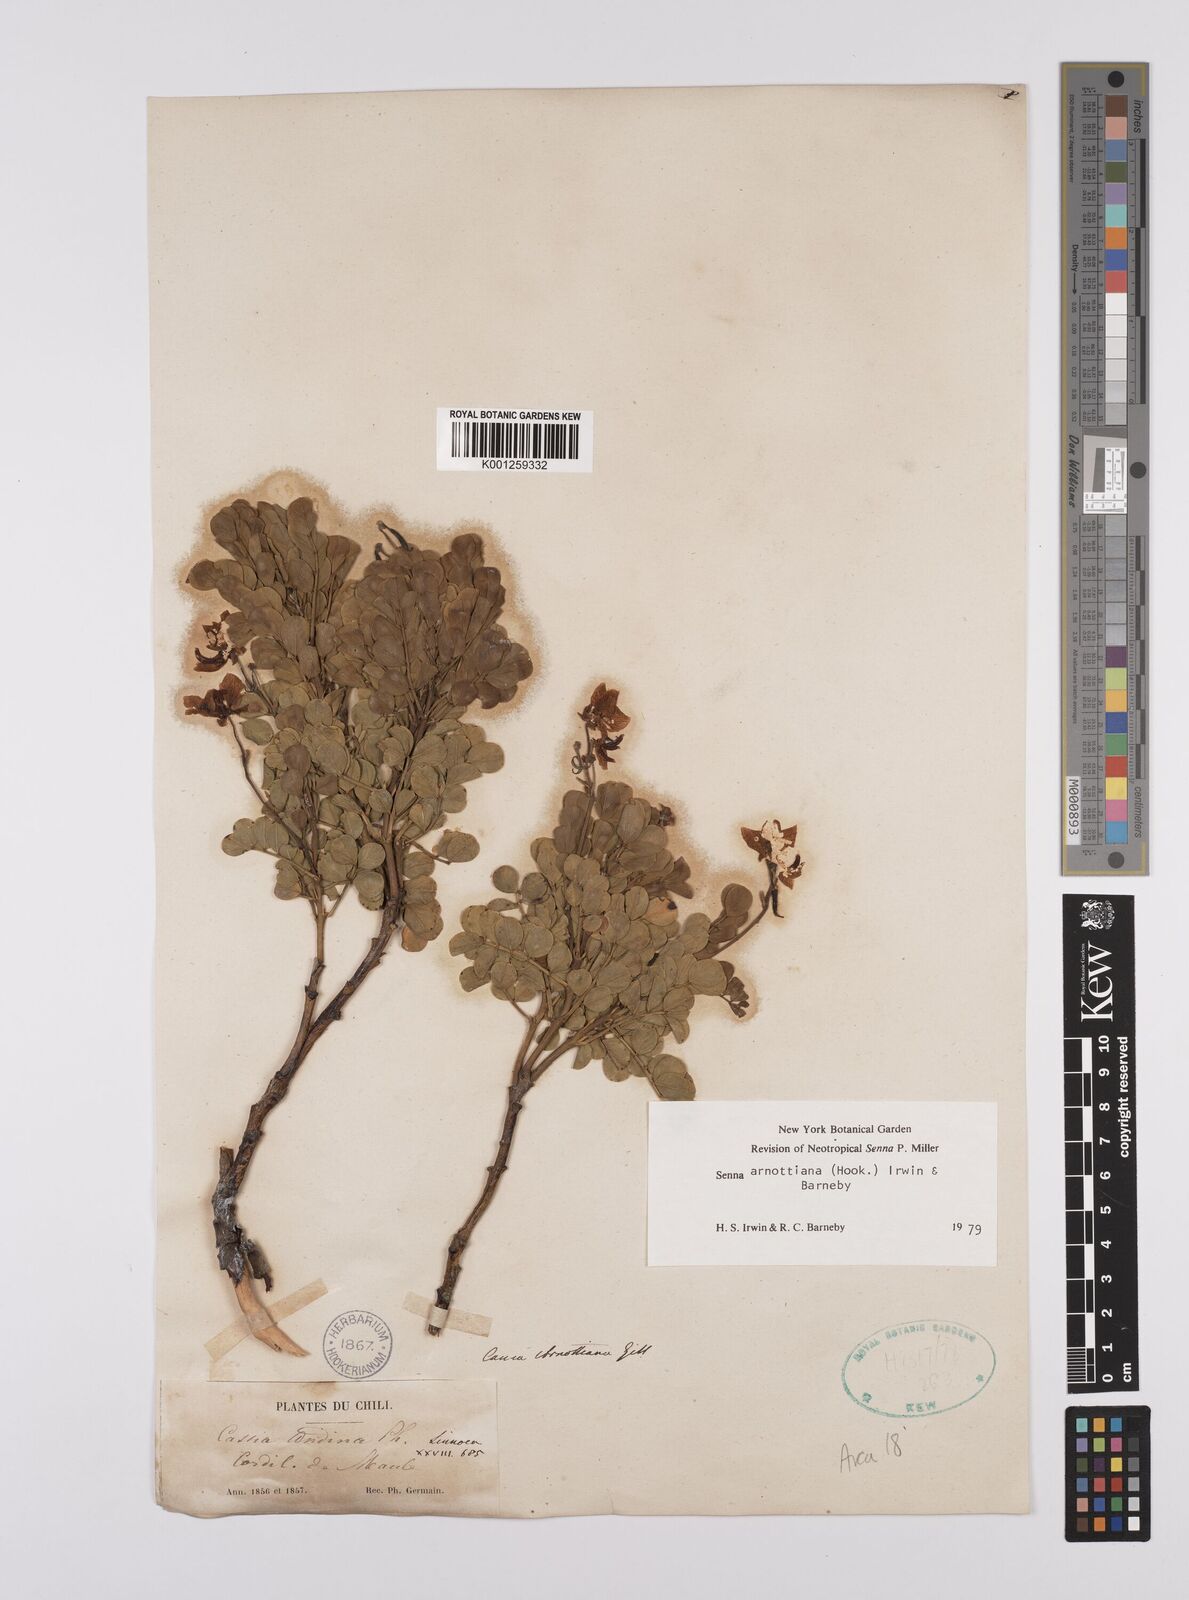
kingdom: Plantae
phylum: Tracheophyta
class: Magnoliopsida
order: Fabales
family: Fabaceae
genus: Senna
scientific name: Senna arnottiana
